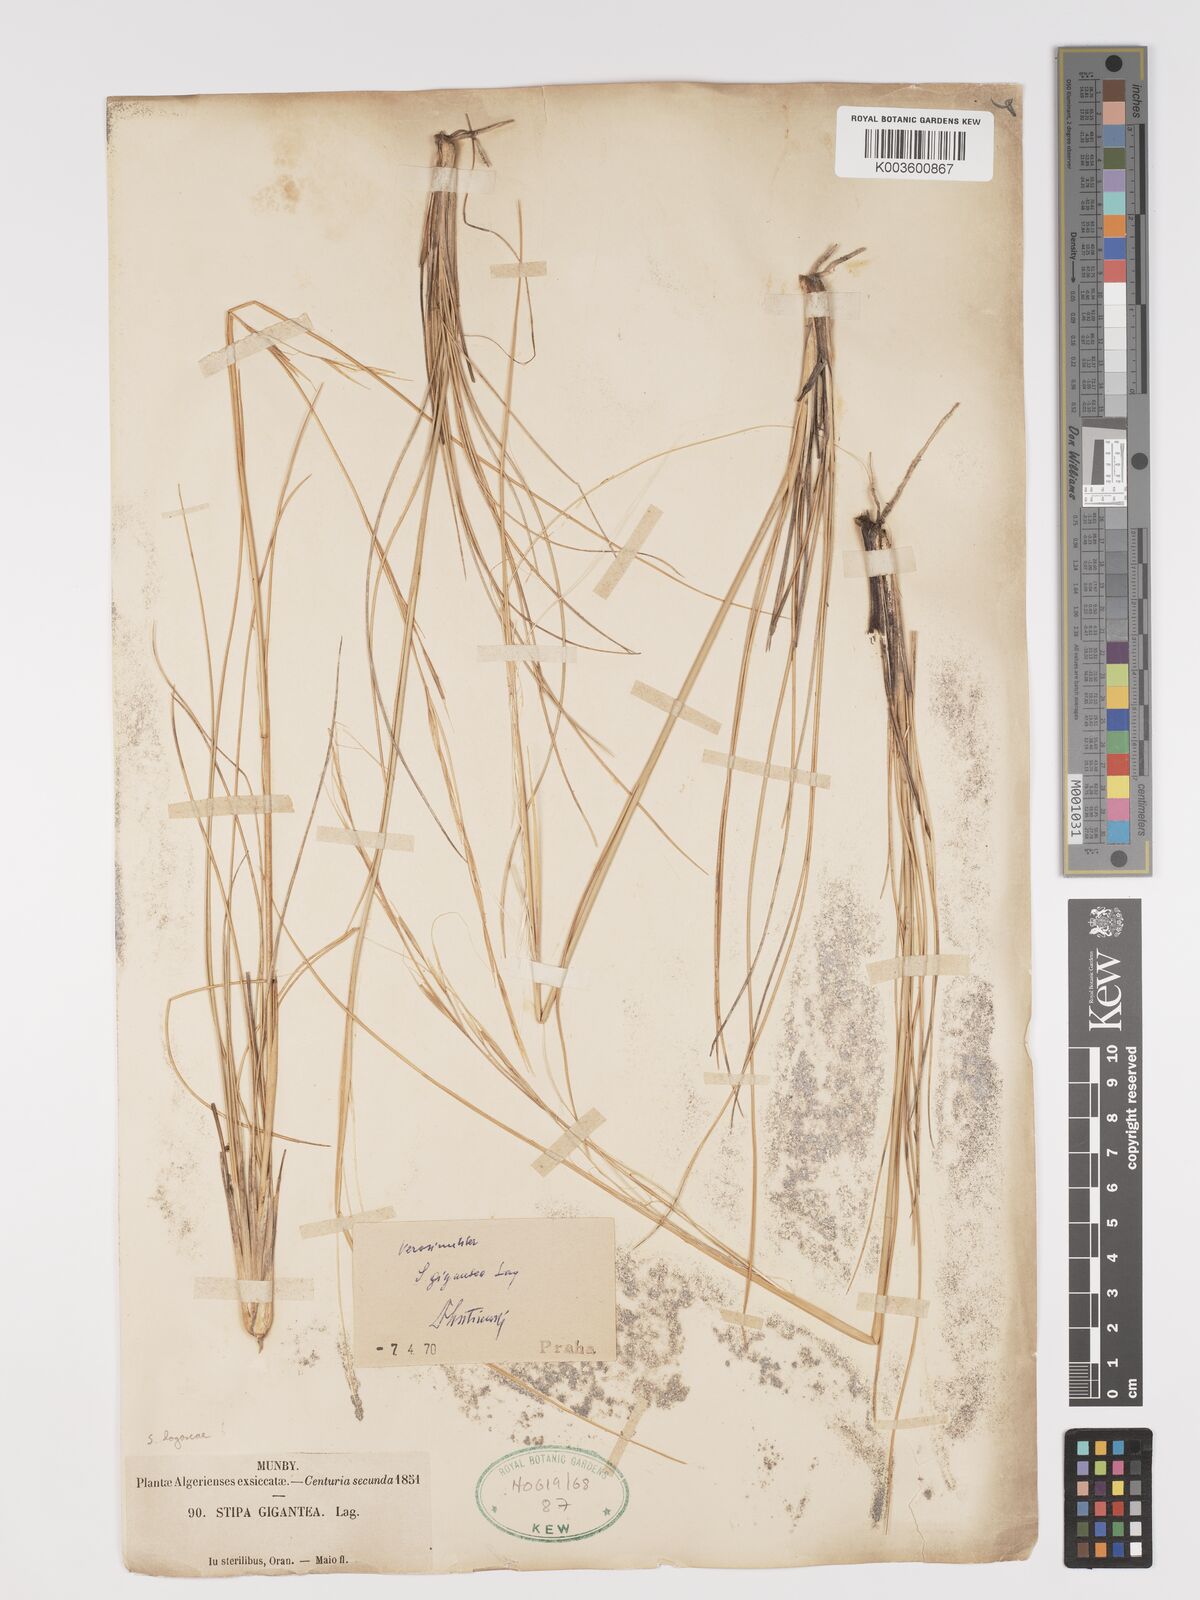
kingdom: Plantae
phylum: Tracheophyta
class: Liliopsida
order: Poales
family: Poaceae
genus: Stipa
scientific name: Stipa lagascae
